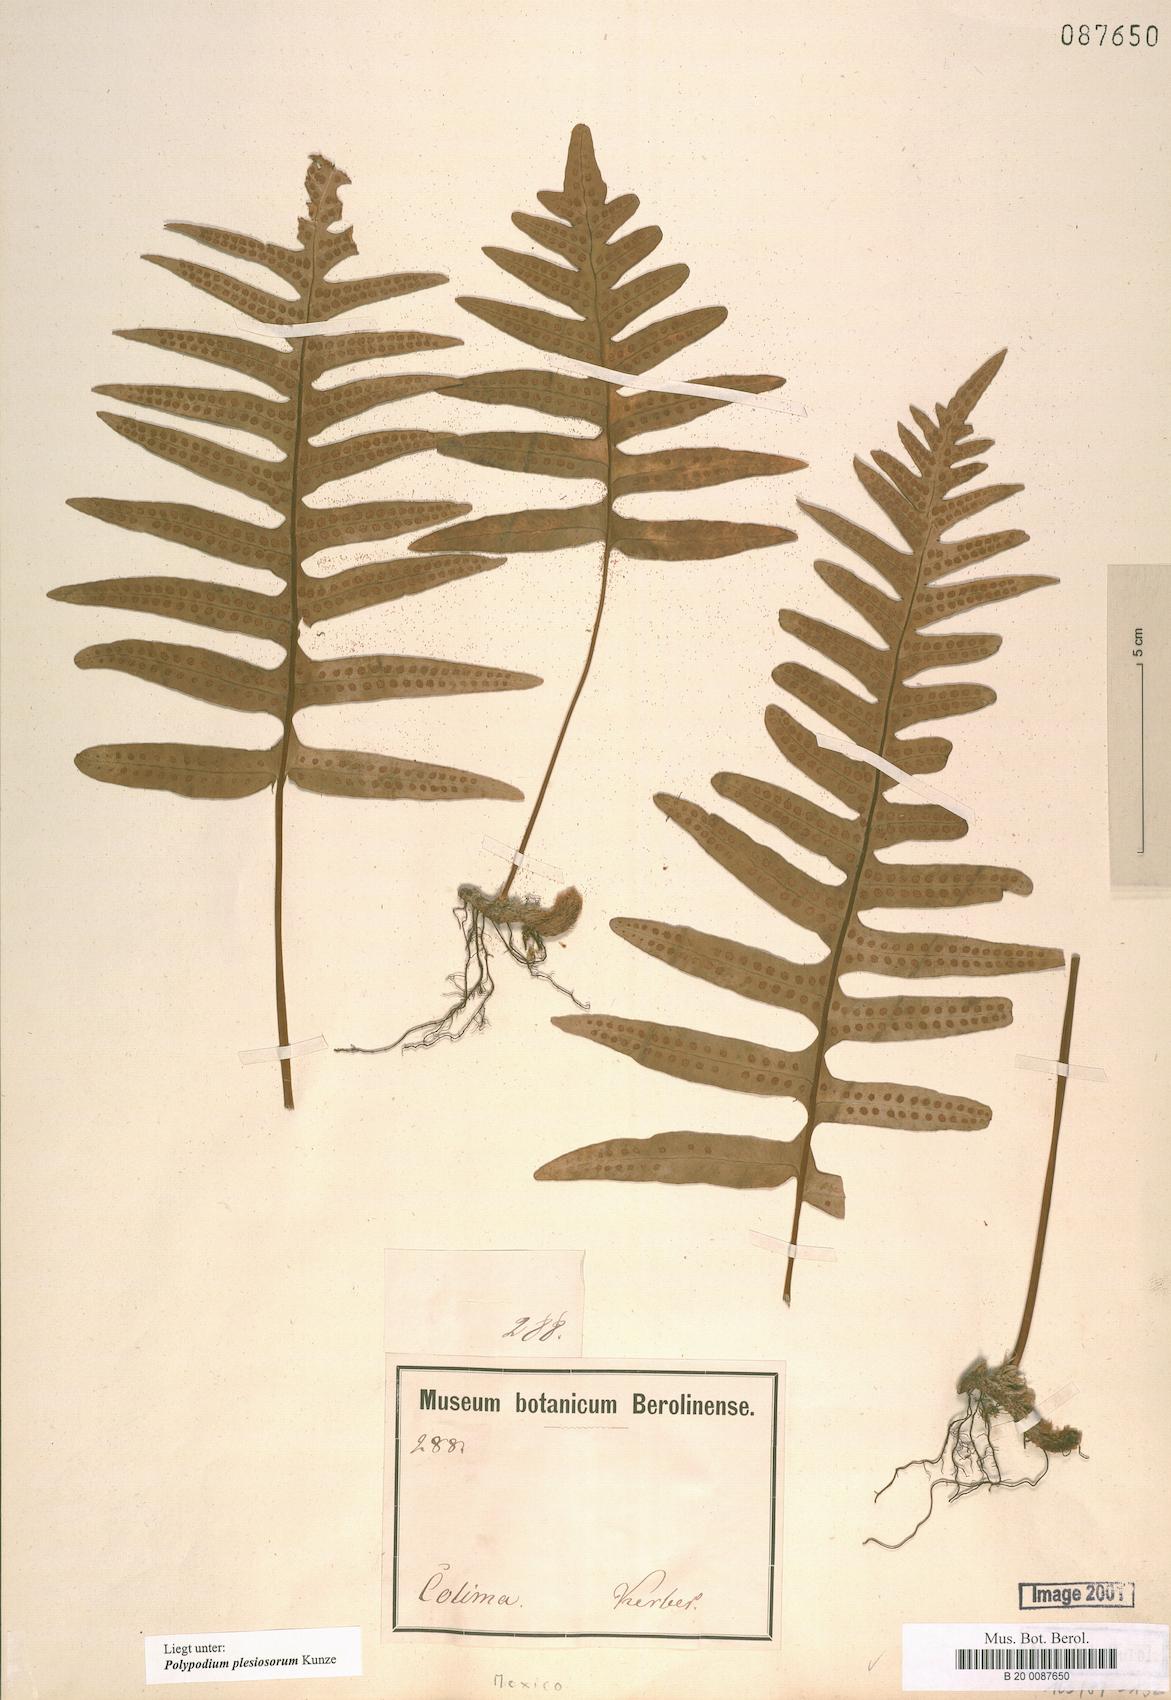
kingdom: Plantae
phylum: Tracheophyta
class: Polypodiopsida
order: Polypodiales
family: Polypodiaceae
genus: Polypodium
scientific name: Polypodium plesiosorum
